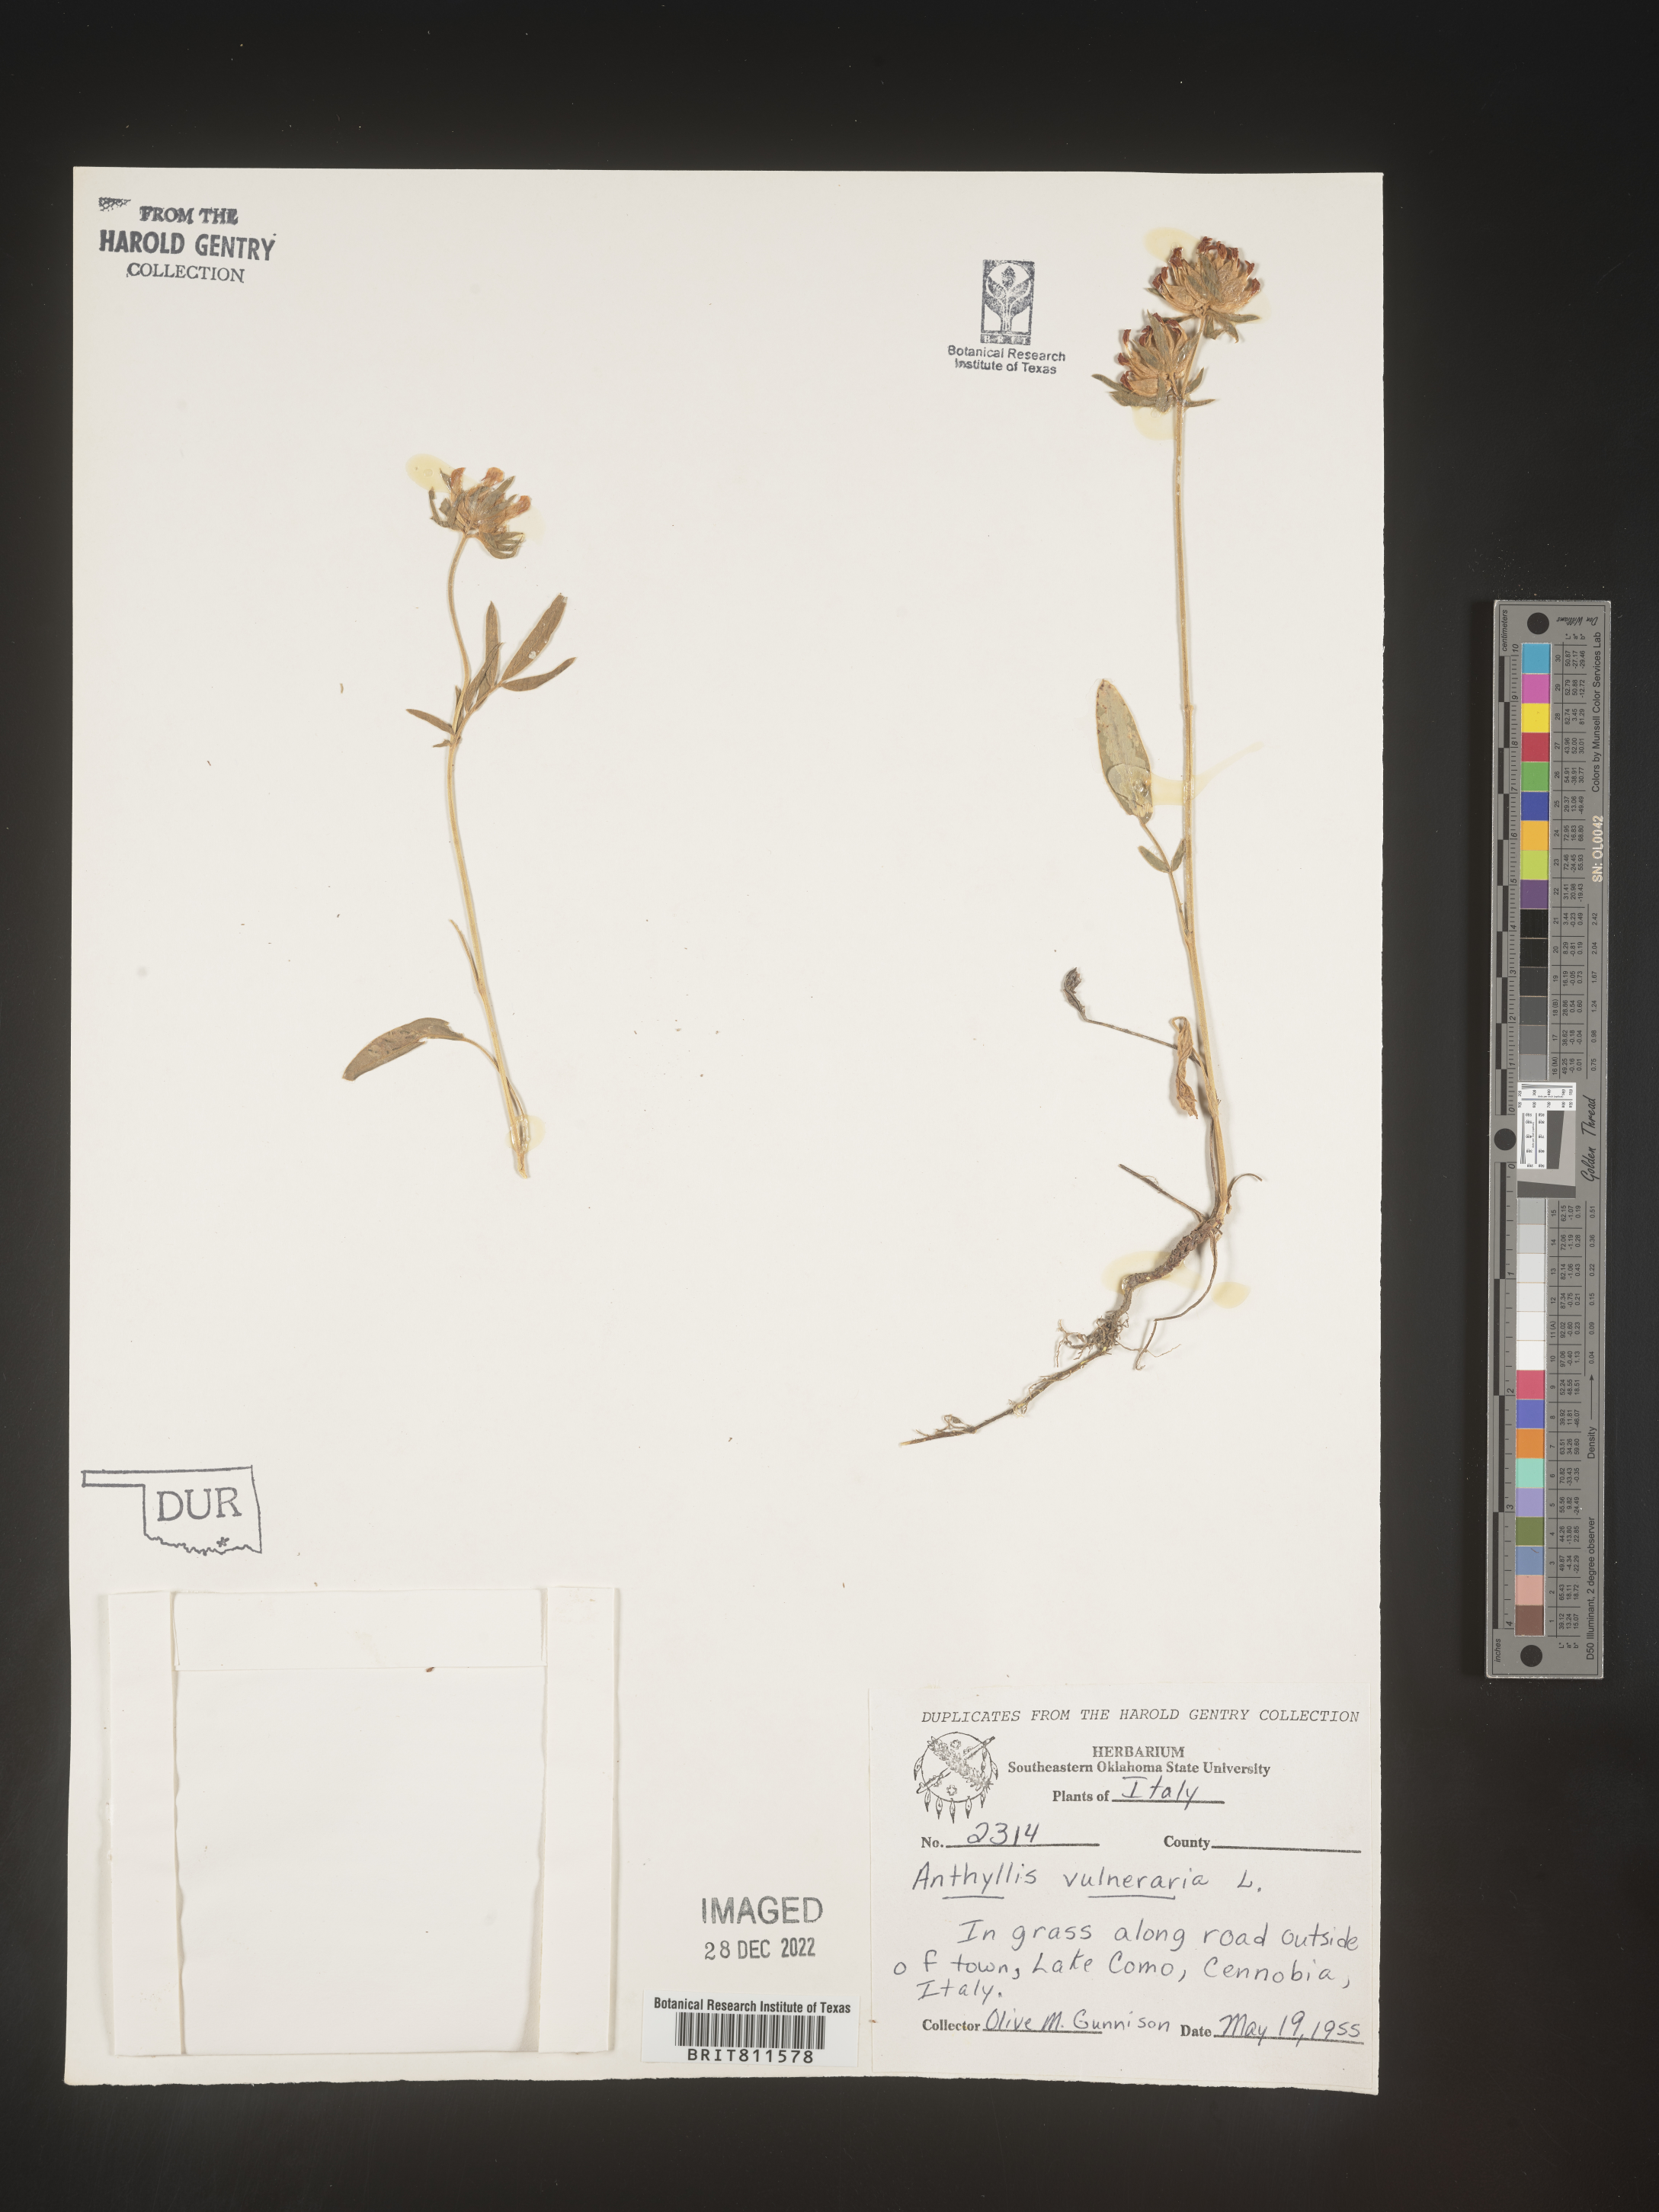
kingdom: Plantae
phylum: Tracheophyta
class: Magnoliopsida
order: Fabales
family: Fabaceae
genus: Anthyllis
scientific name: Anthyllis
